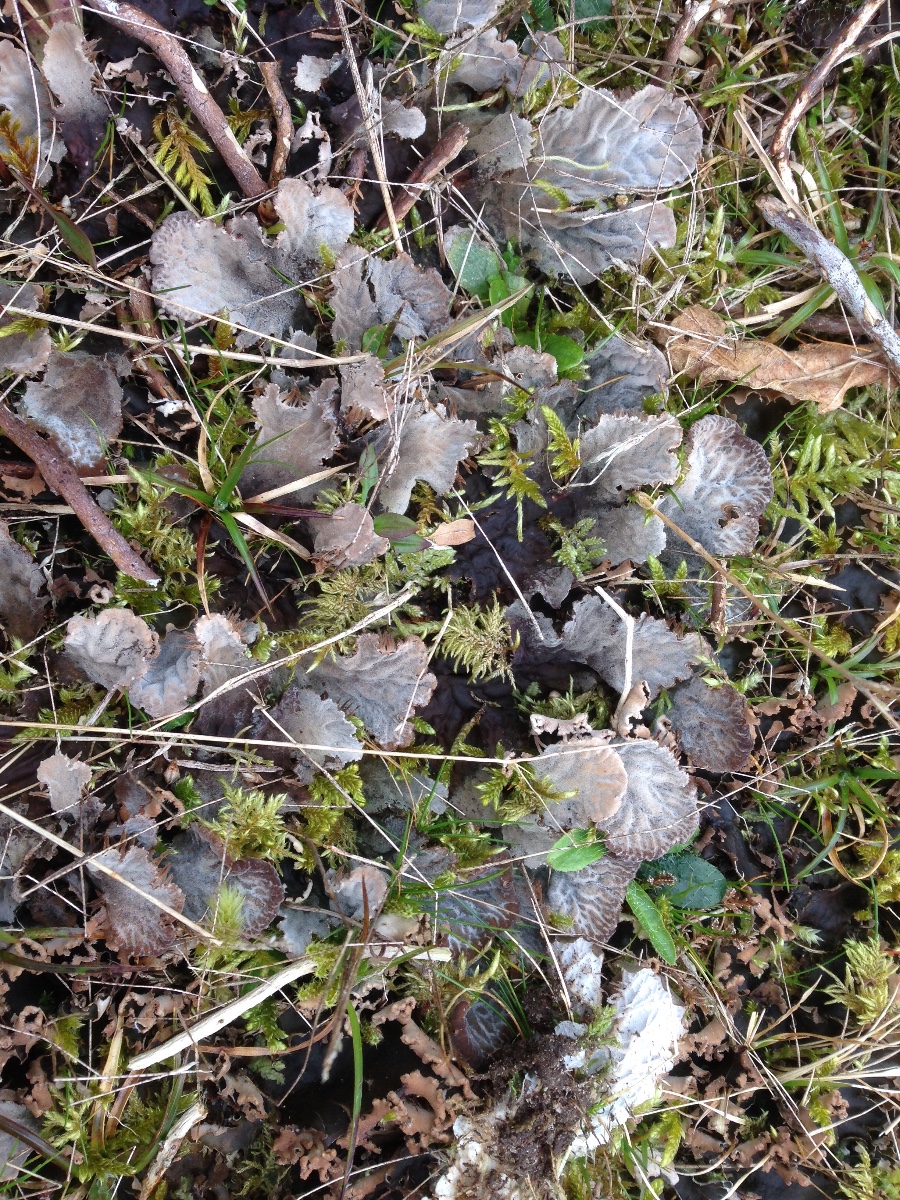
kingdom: Fungi
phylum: Ascomycota
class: Lecanoromycetes
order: Peltigerales
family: Peltigeraceae
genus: Peltigera
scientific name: Peltigera membranacea
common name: tynd skjoldlav
